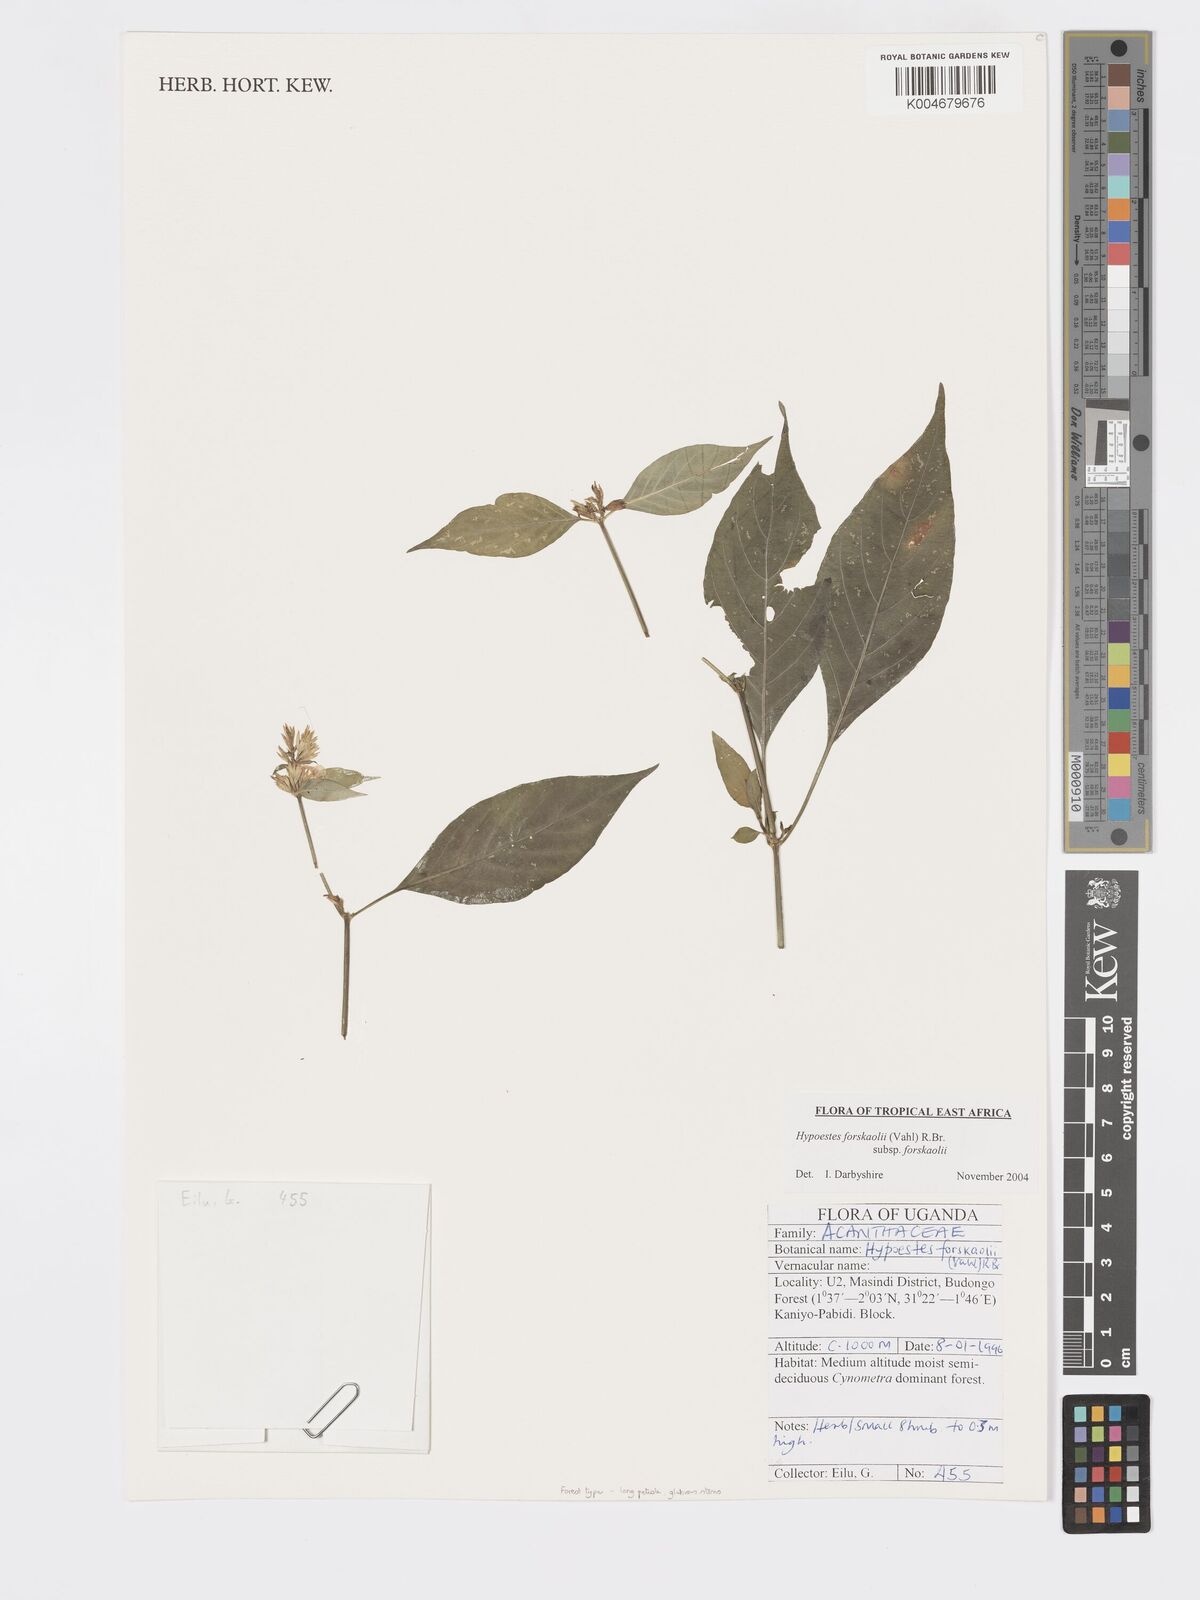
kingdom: Plantae
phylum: Tracheophyta
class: Magnoliopsida
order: Lamiales
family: Acanthaceae
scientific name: Acanthaceae
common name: Acanthaceae
